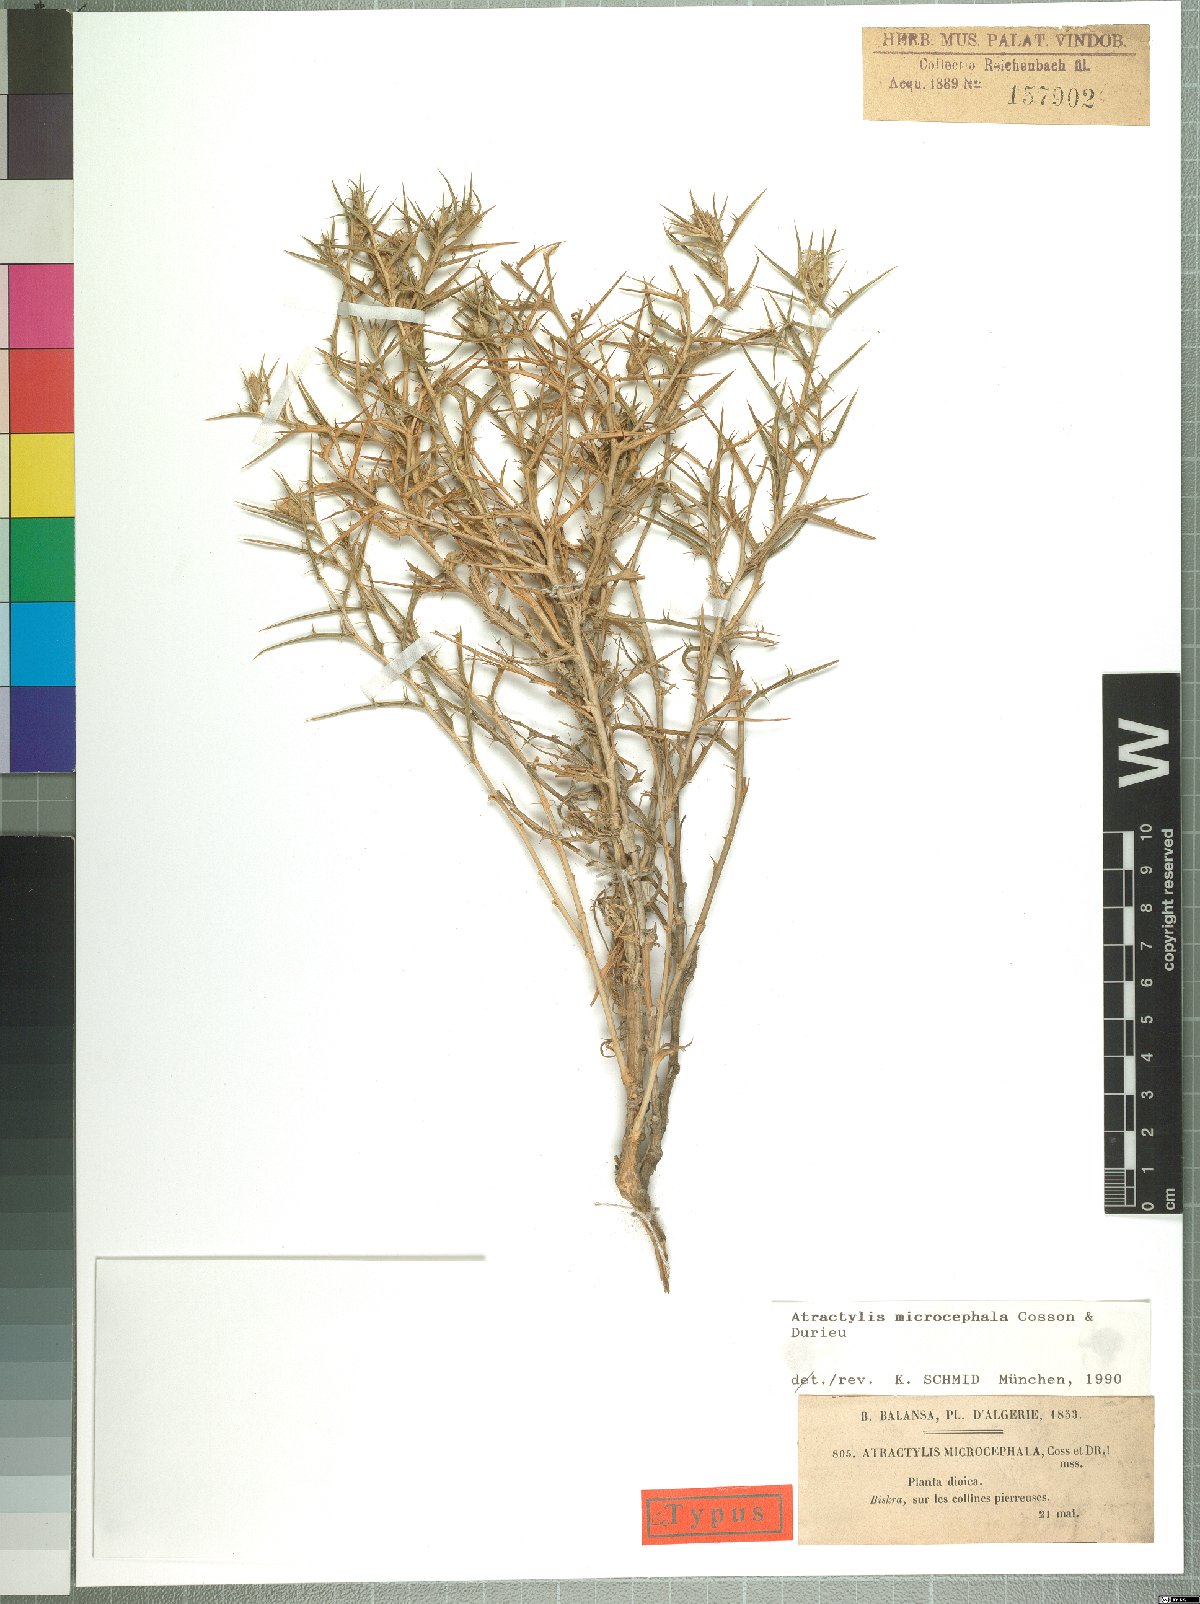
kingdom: Plantae
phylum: Tracheophyta
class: Magnoliopsida
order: Asterales
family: Asteraceae
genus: Atractylis
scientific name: Atractylis serratuloides
